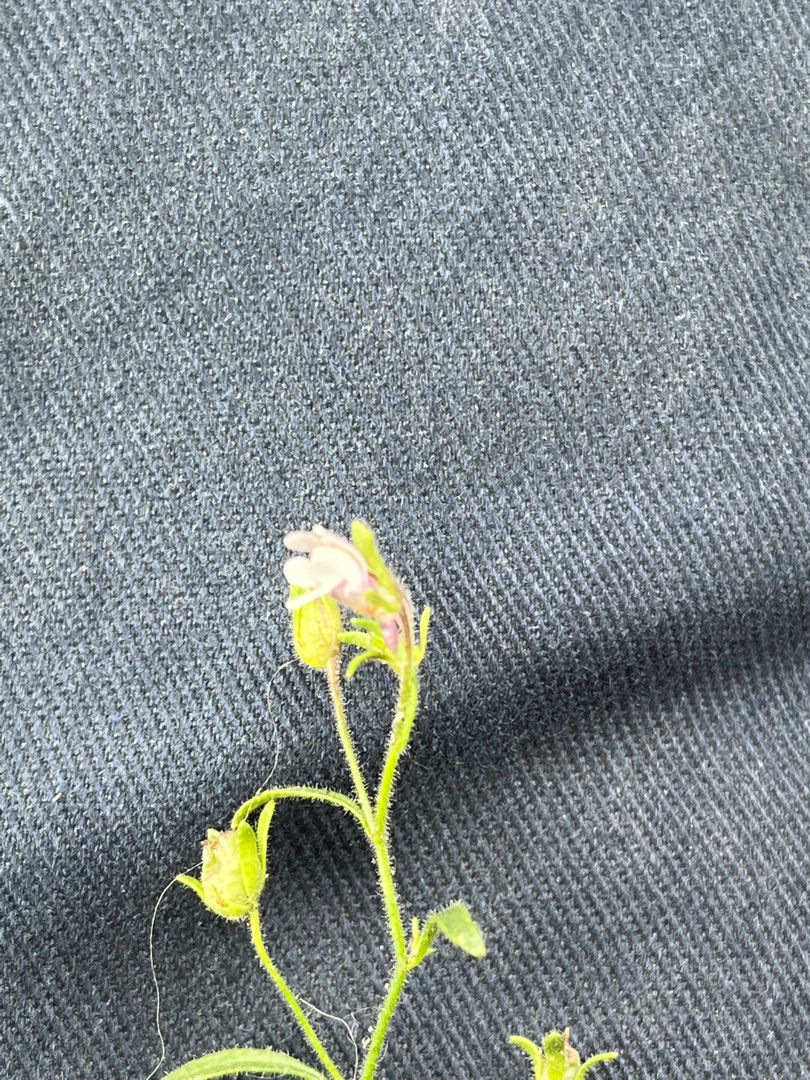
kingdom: Plantae
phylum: Tracheophyta
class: Magnoliopsida
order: Lamiales
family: Plantaginaceae
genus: Chaenorhinum
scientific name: Chaenorhinum minus
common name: Liden torskemund
